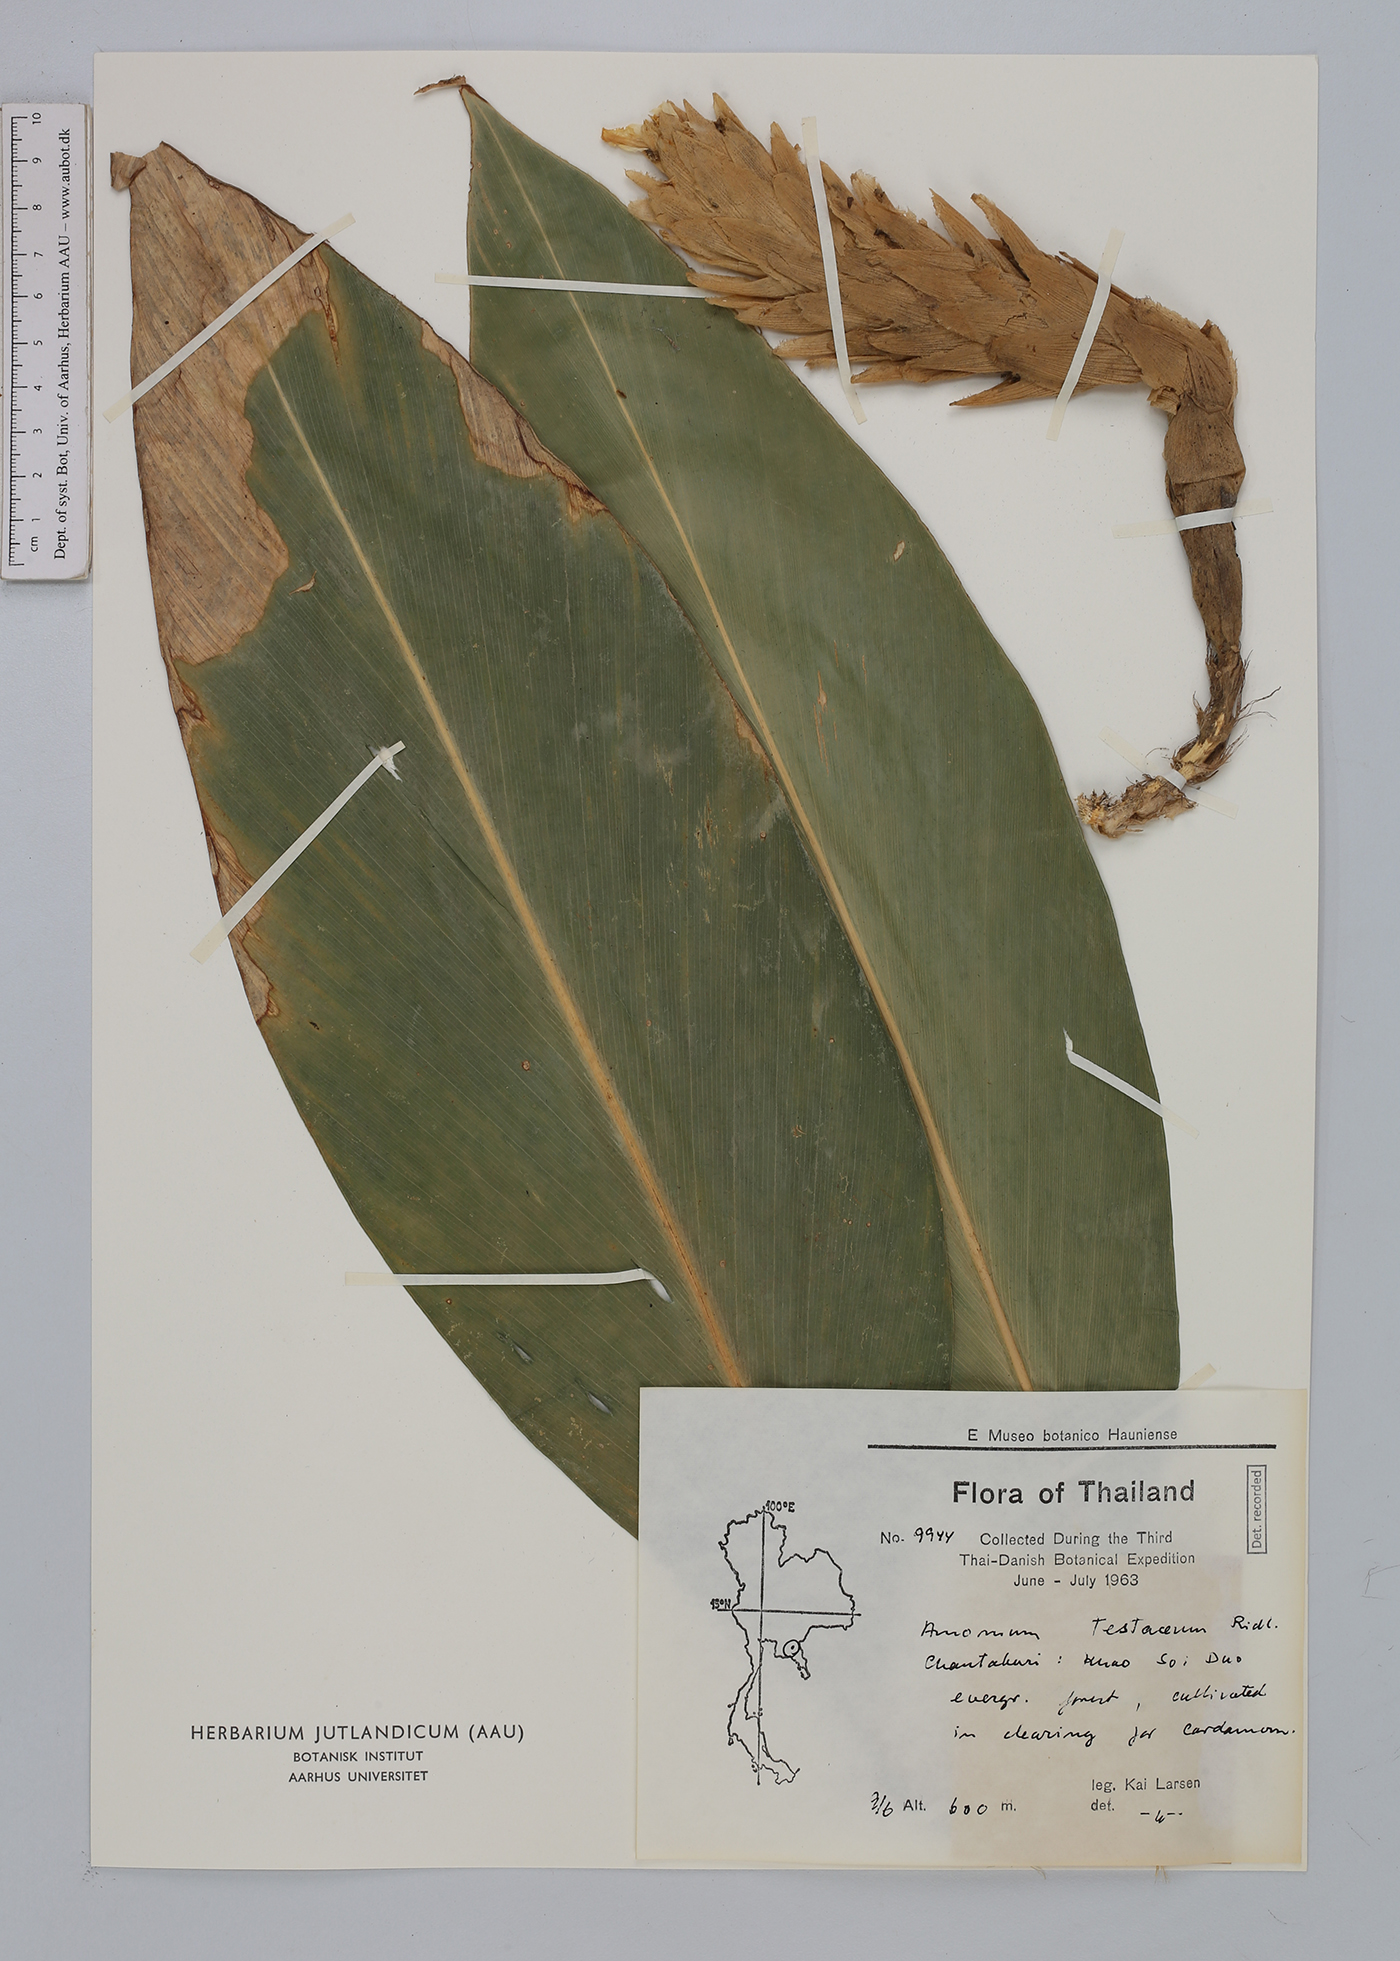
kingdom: Plantae
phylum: Tracheophyta
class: Liliopsida
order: Zingiberales
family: Zingiberaceae
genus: Wurfbainia
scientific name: Wurfbainia testacea
